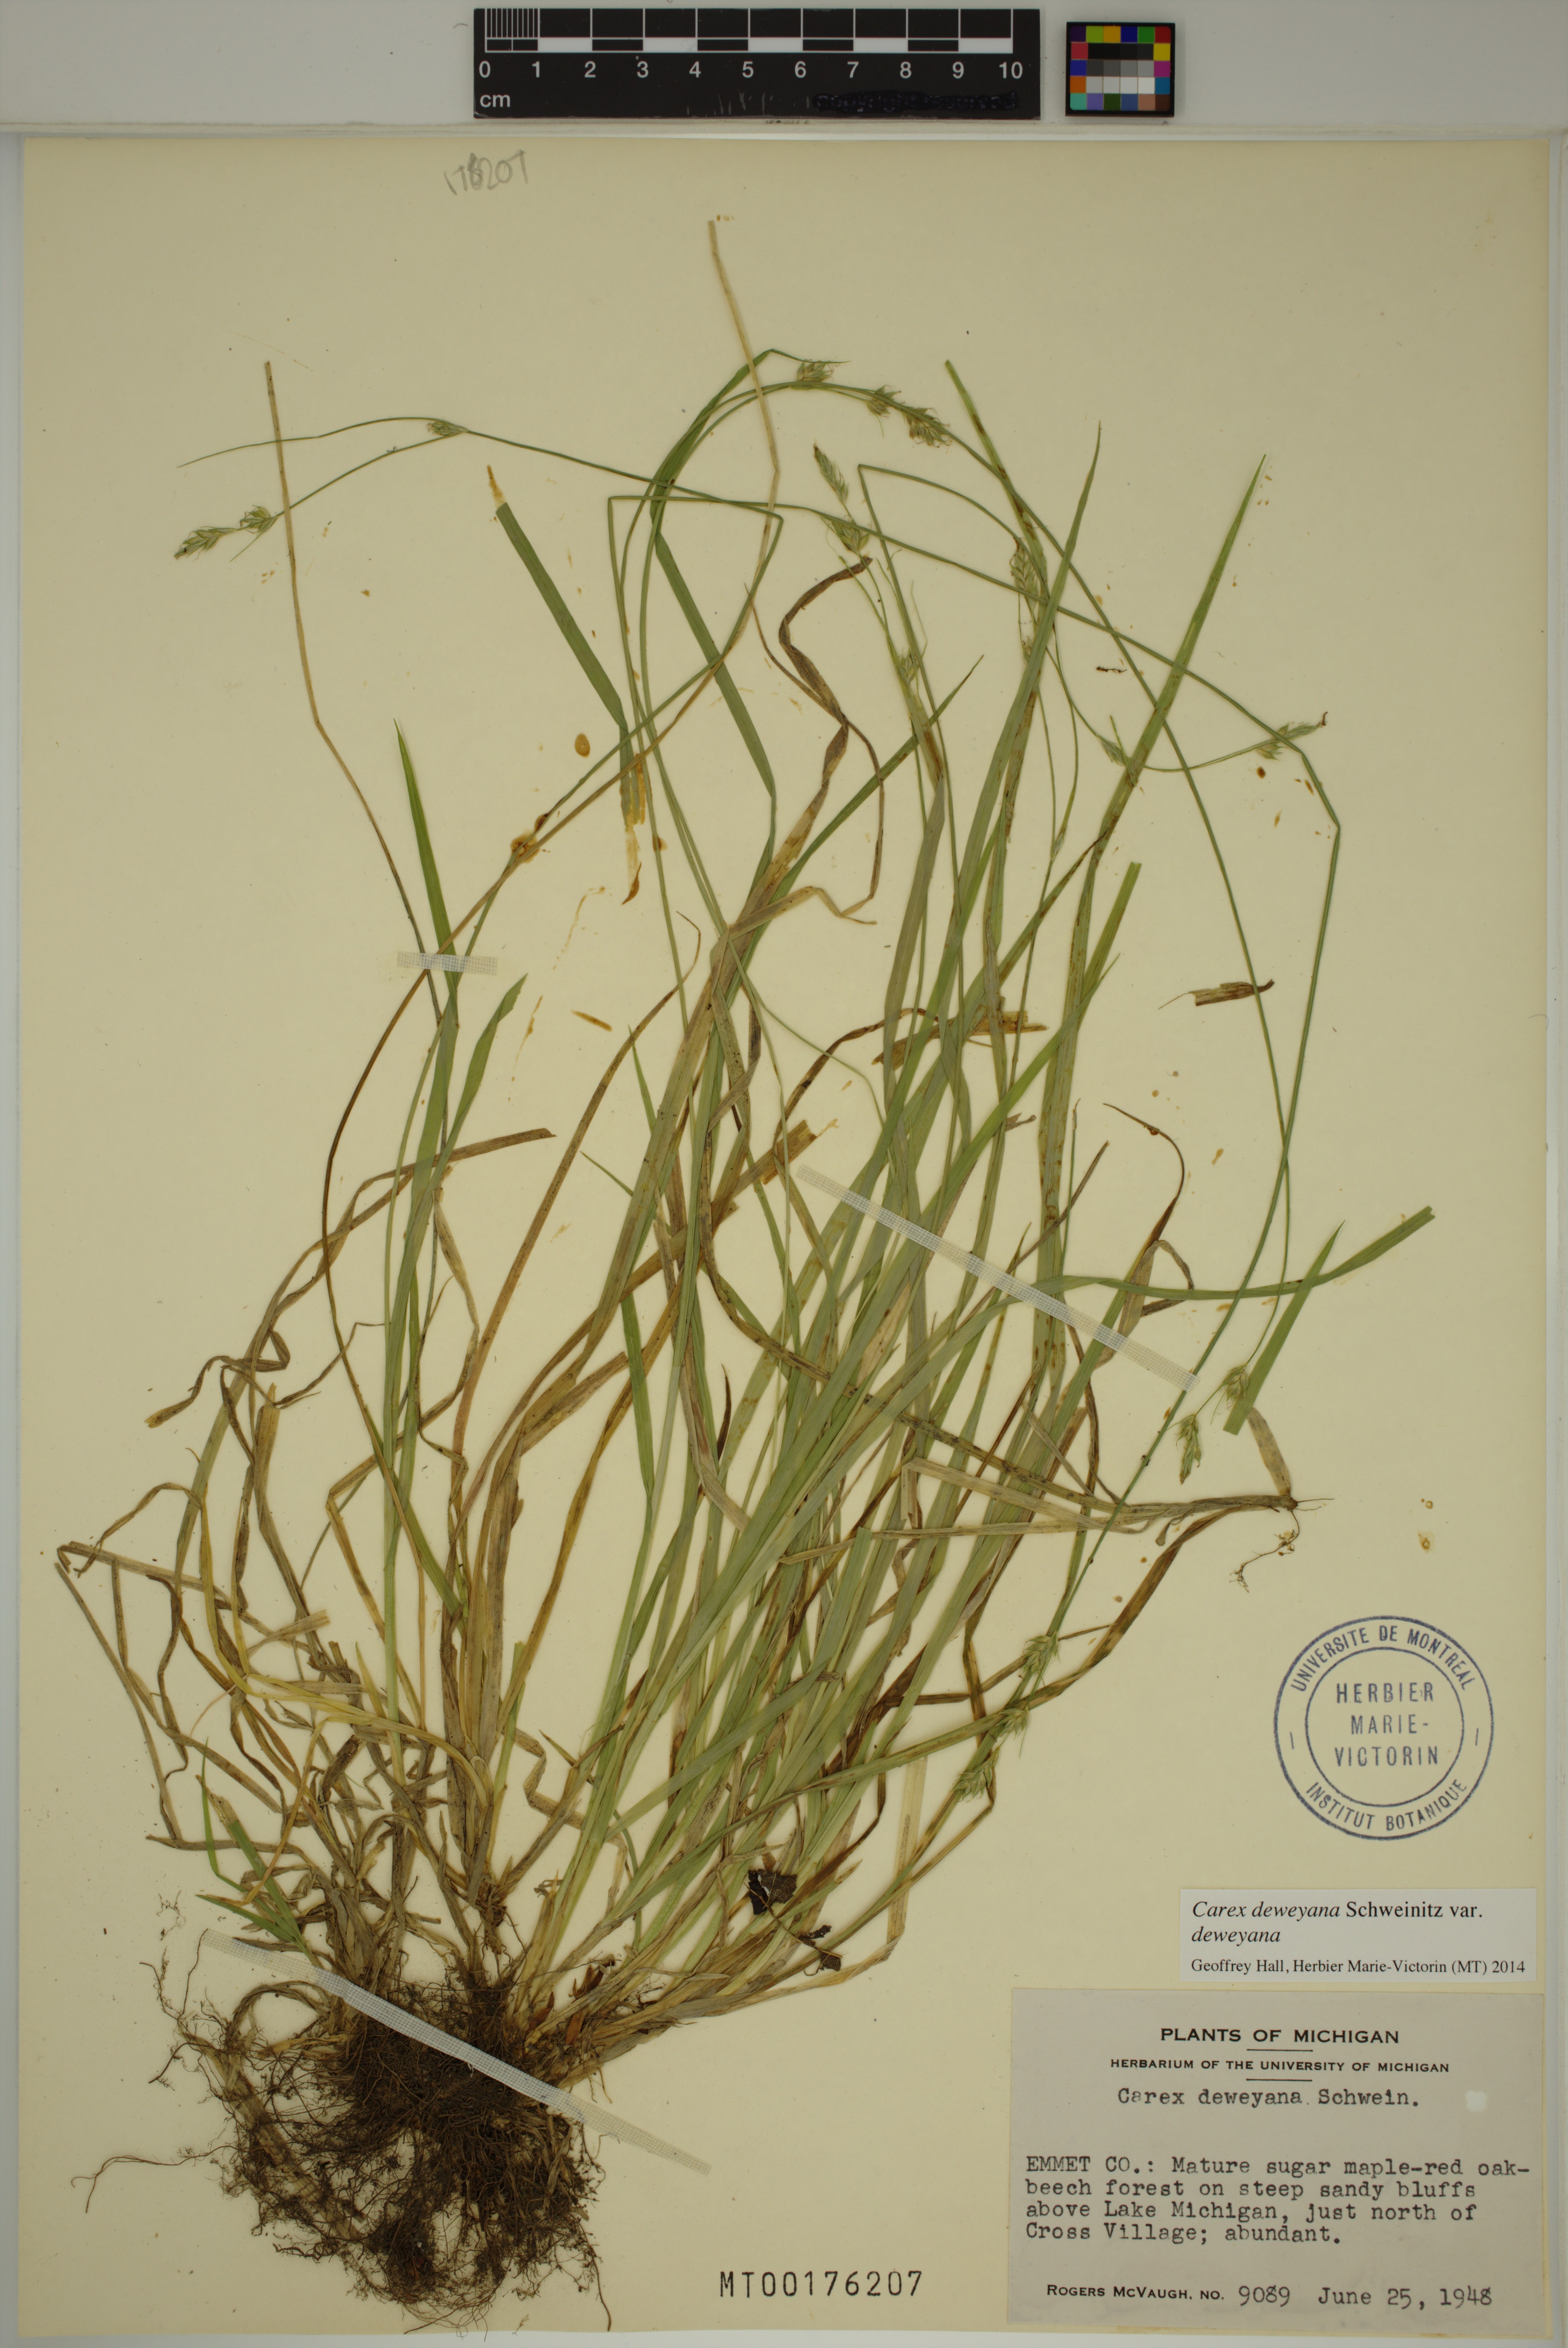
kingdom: Plantae
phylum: Tracheophyta
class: Liliopsida
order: Poales
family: Cyperaceae
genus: Carex
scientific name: Carex deweyana
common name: Dewey's sedge
